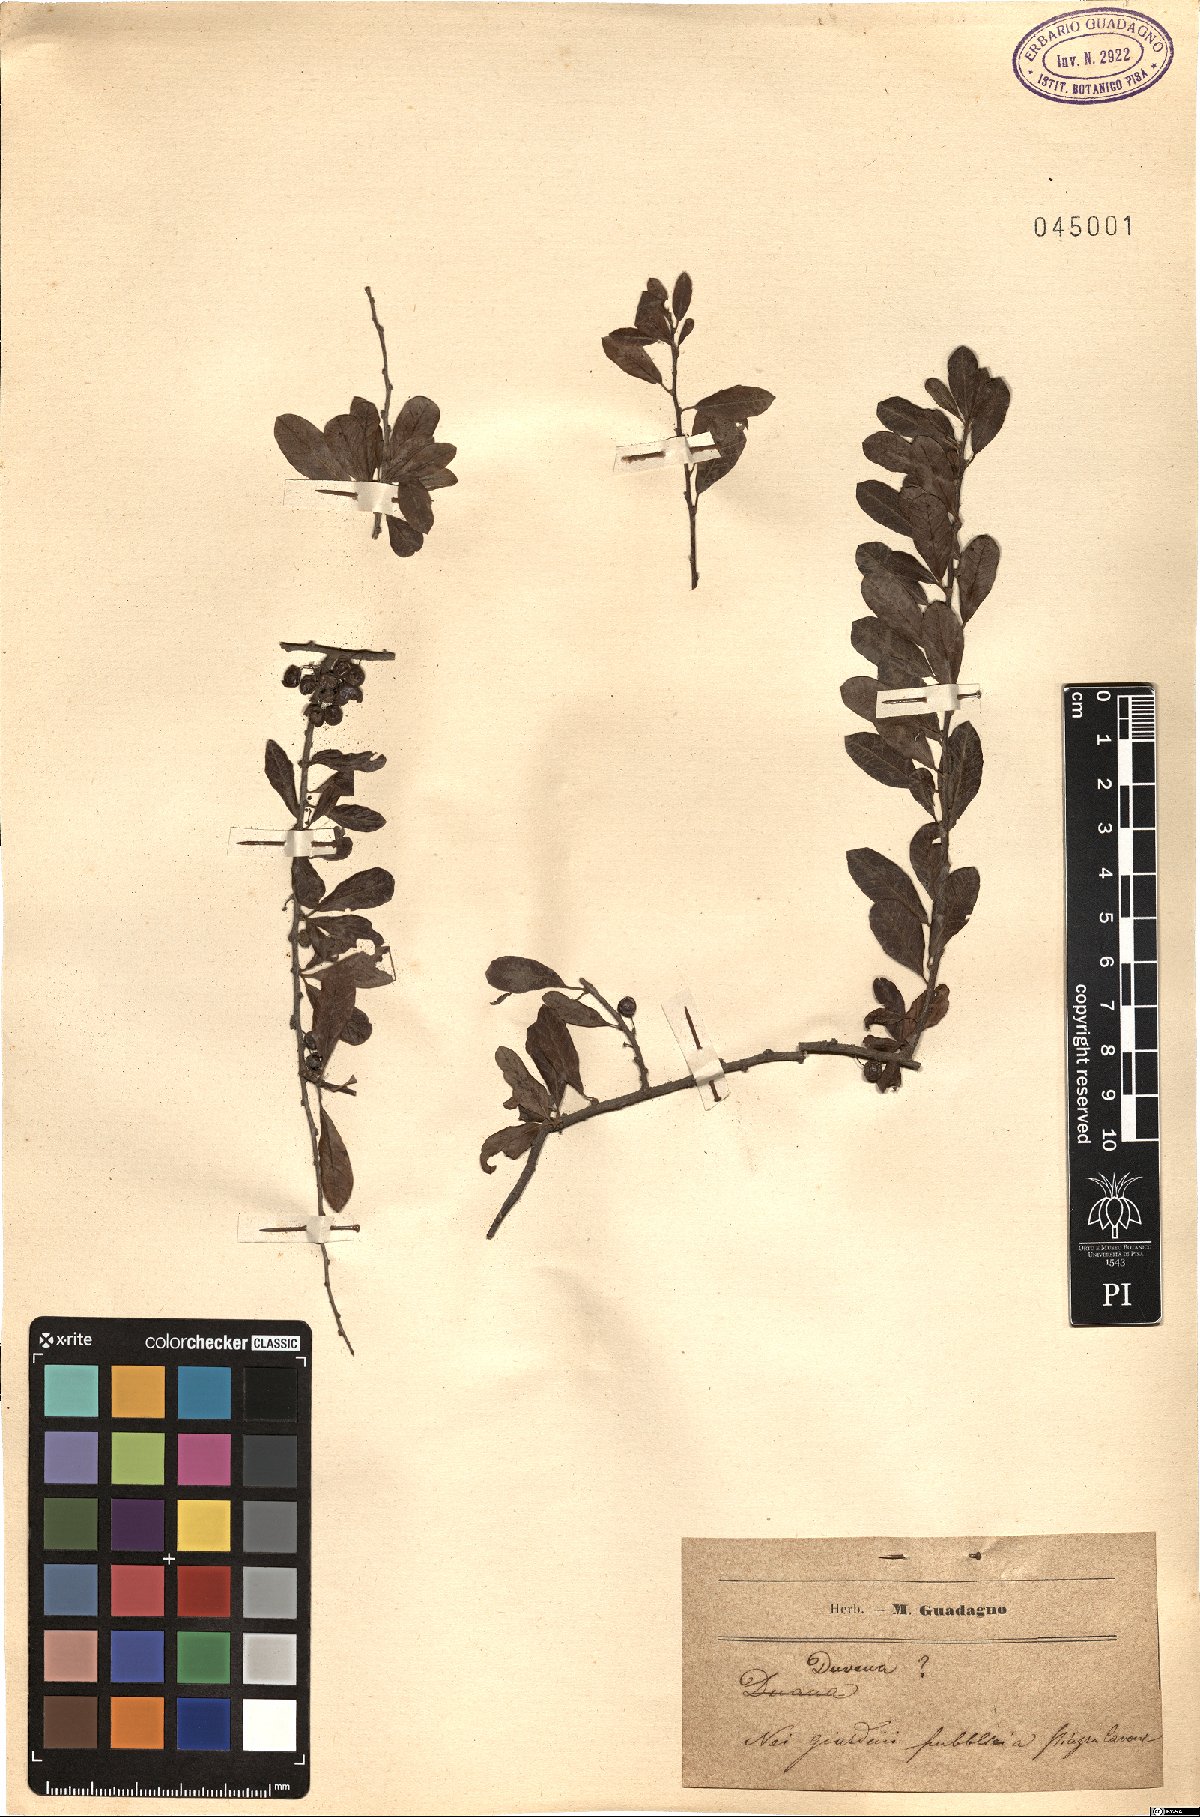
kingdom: Plantae
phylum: Tracheophyta
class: Magnoliopsida
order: Sapindales
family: Anacardiaceae
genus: Schinus
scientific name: Schinus
